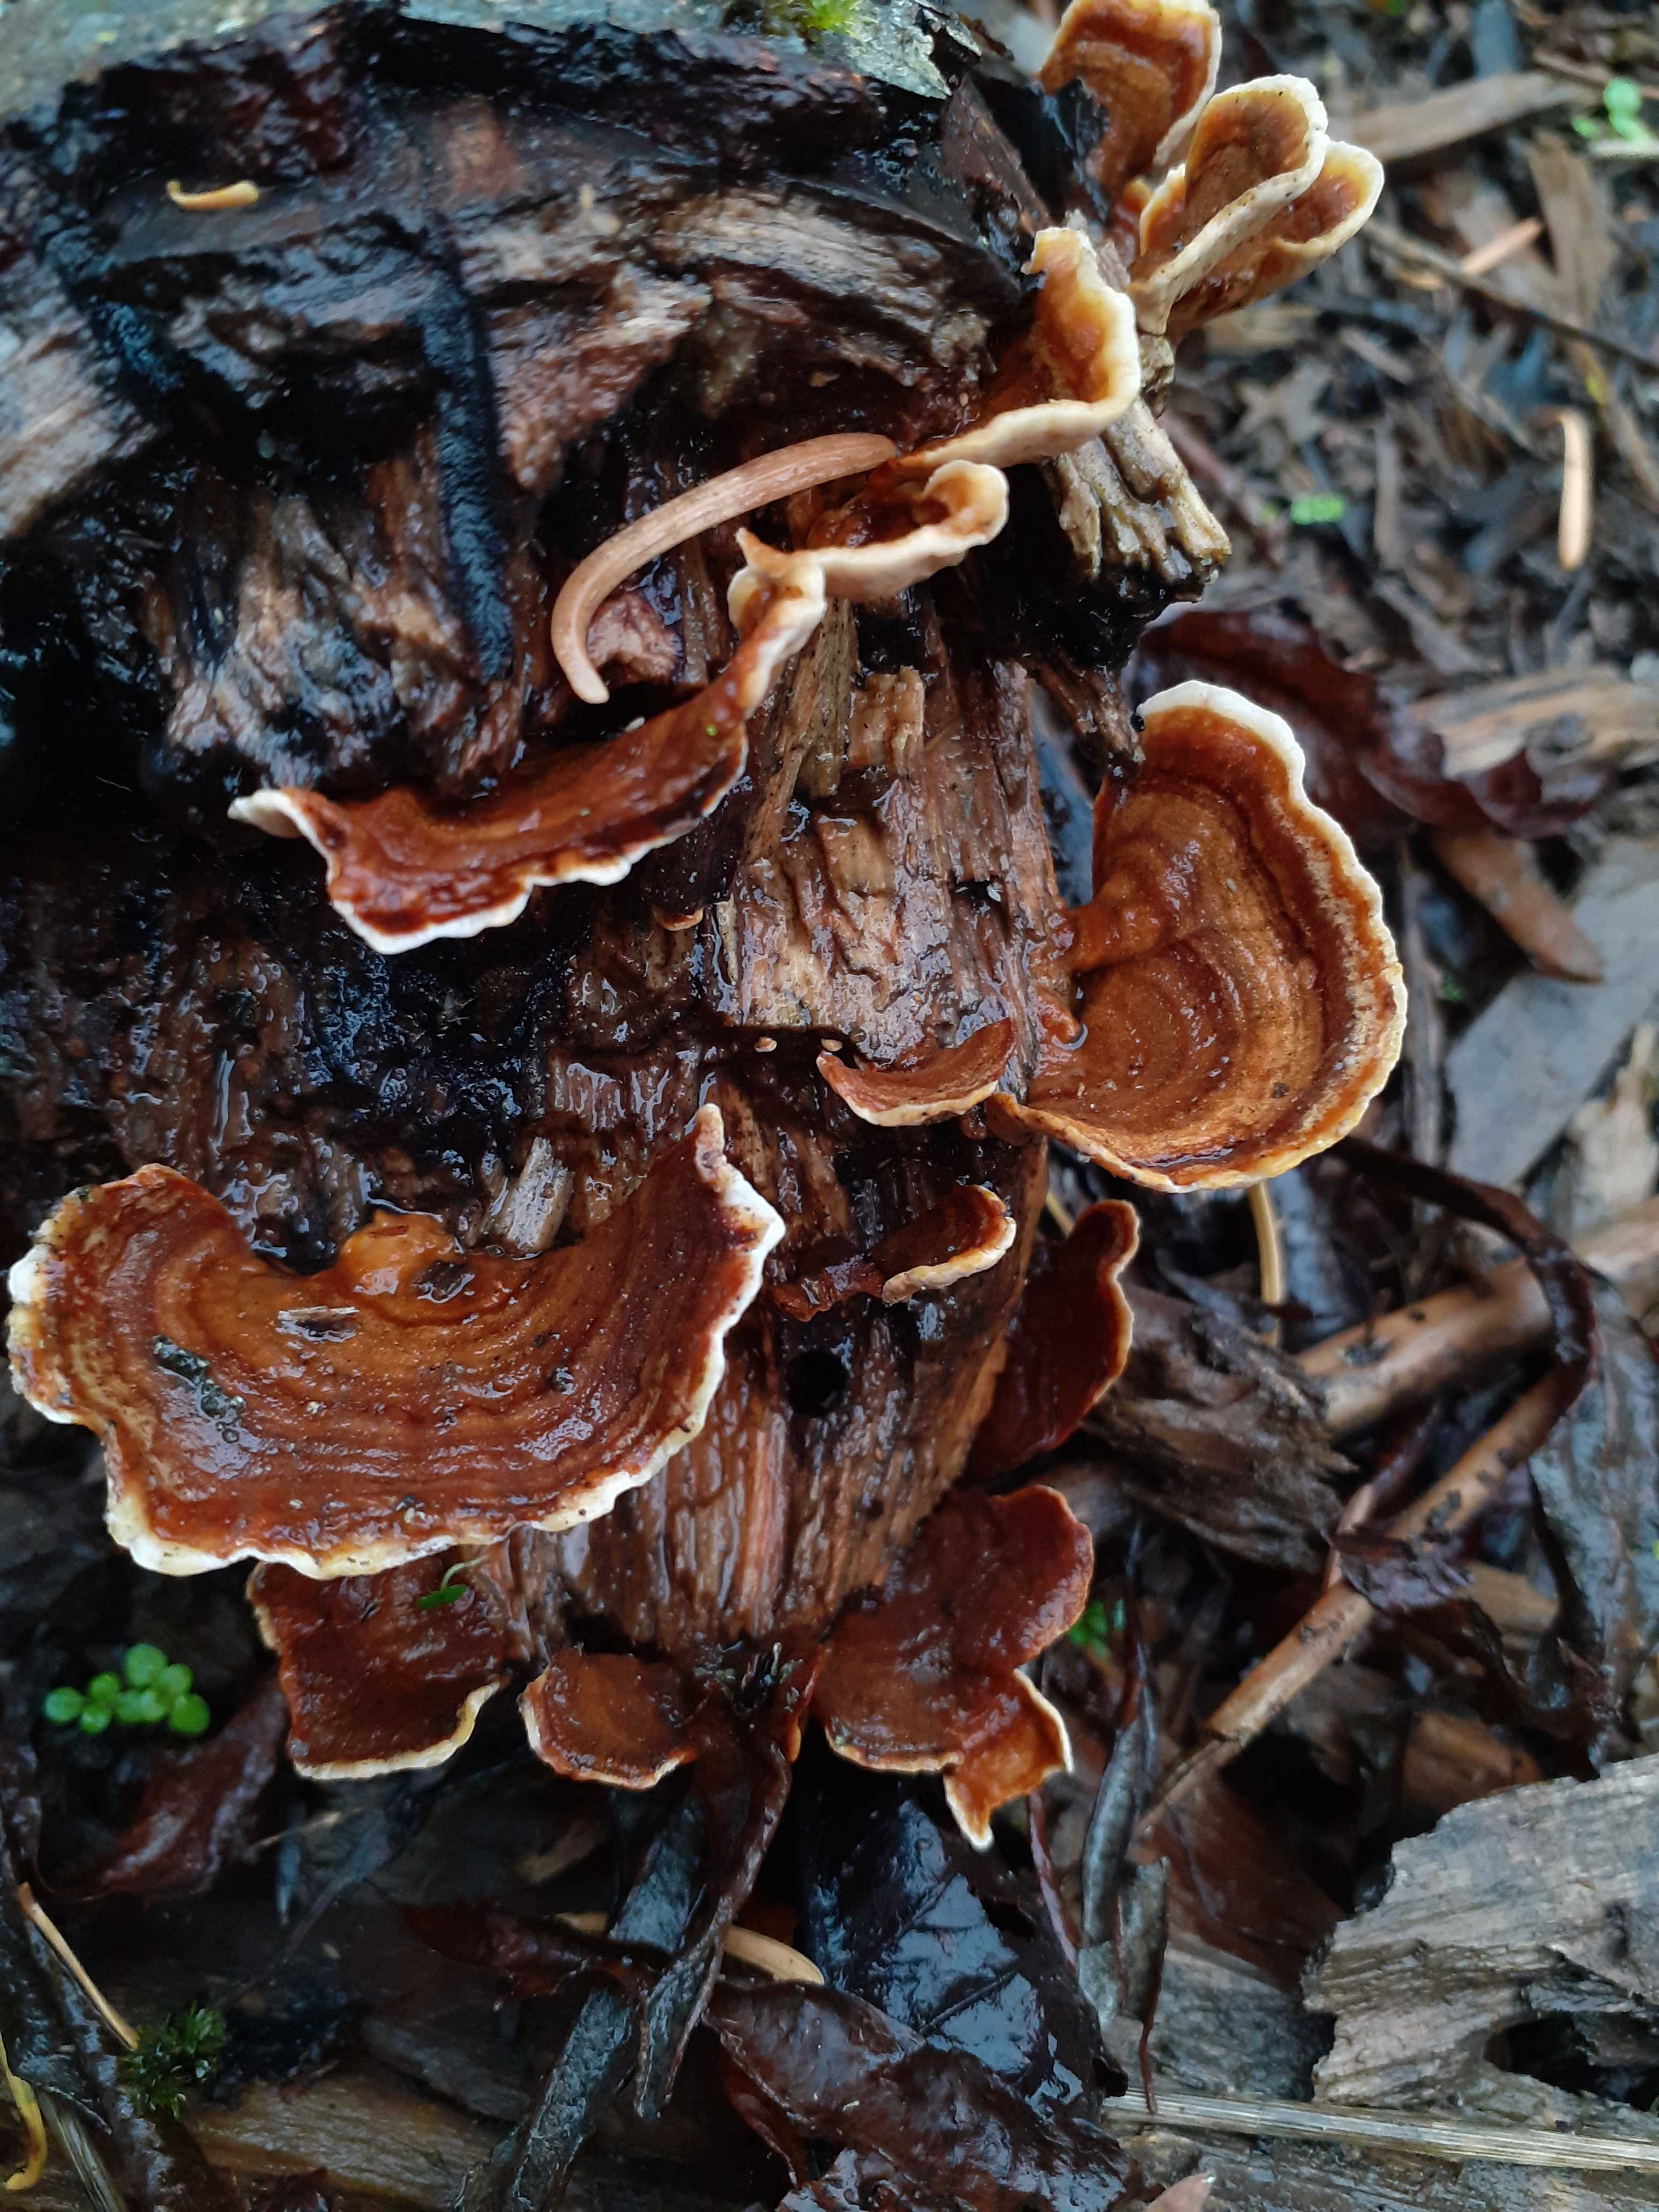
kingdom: Fungi
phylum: Basidiomycota
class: Agaricomycetes
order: Russulales
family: Stereaceae
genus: Stereum
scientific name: Stereum subtomentosum
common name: smuk lædersvamp
